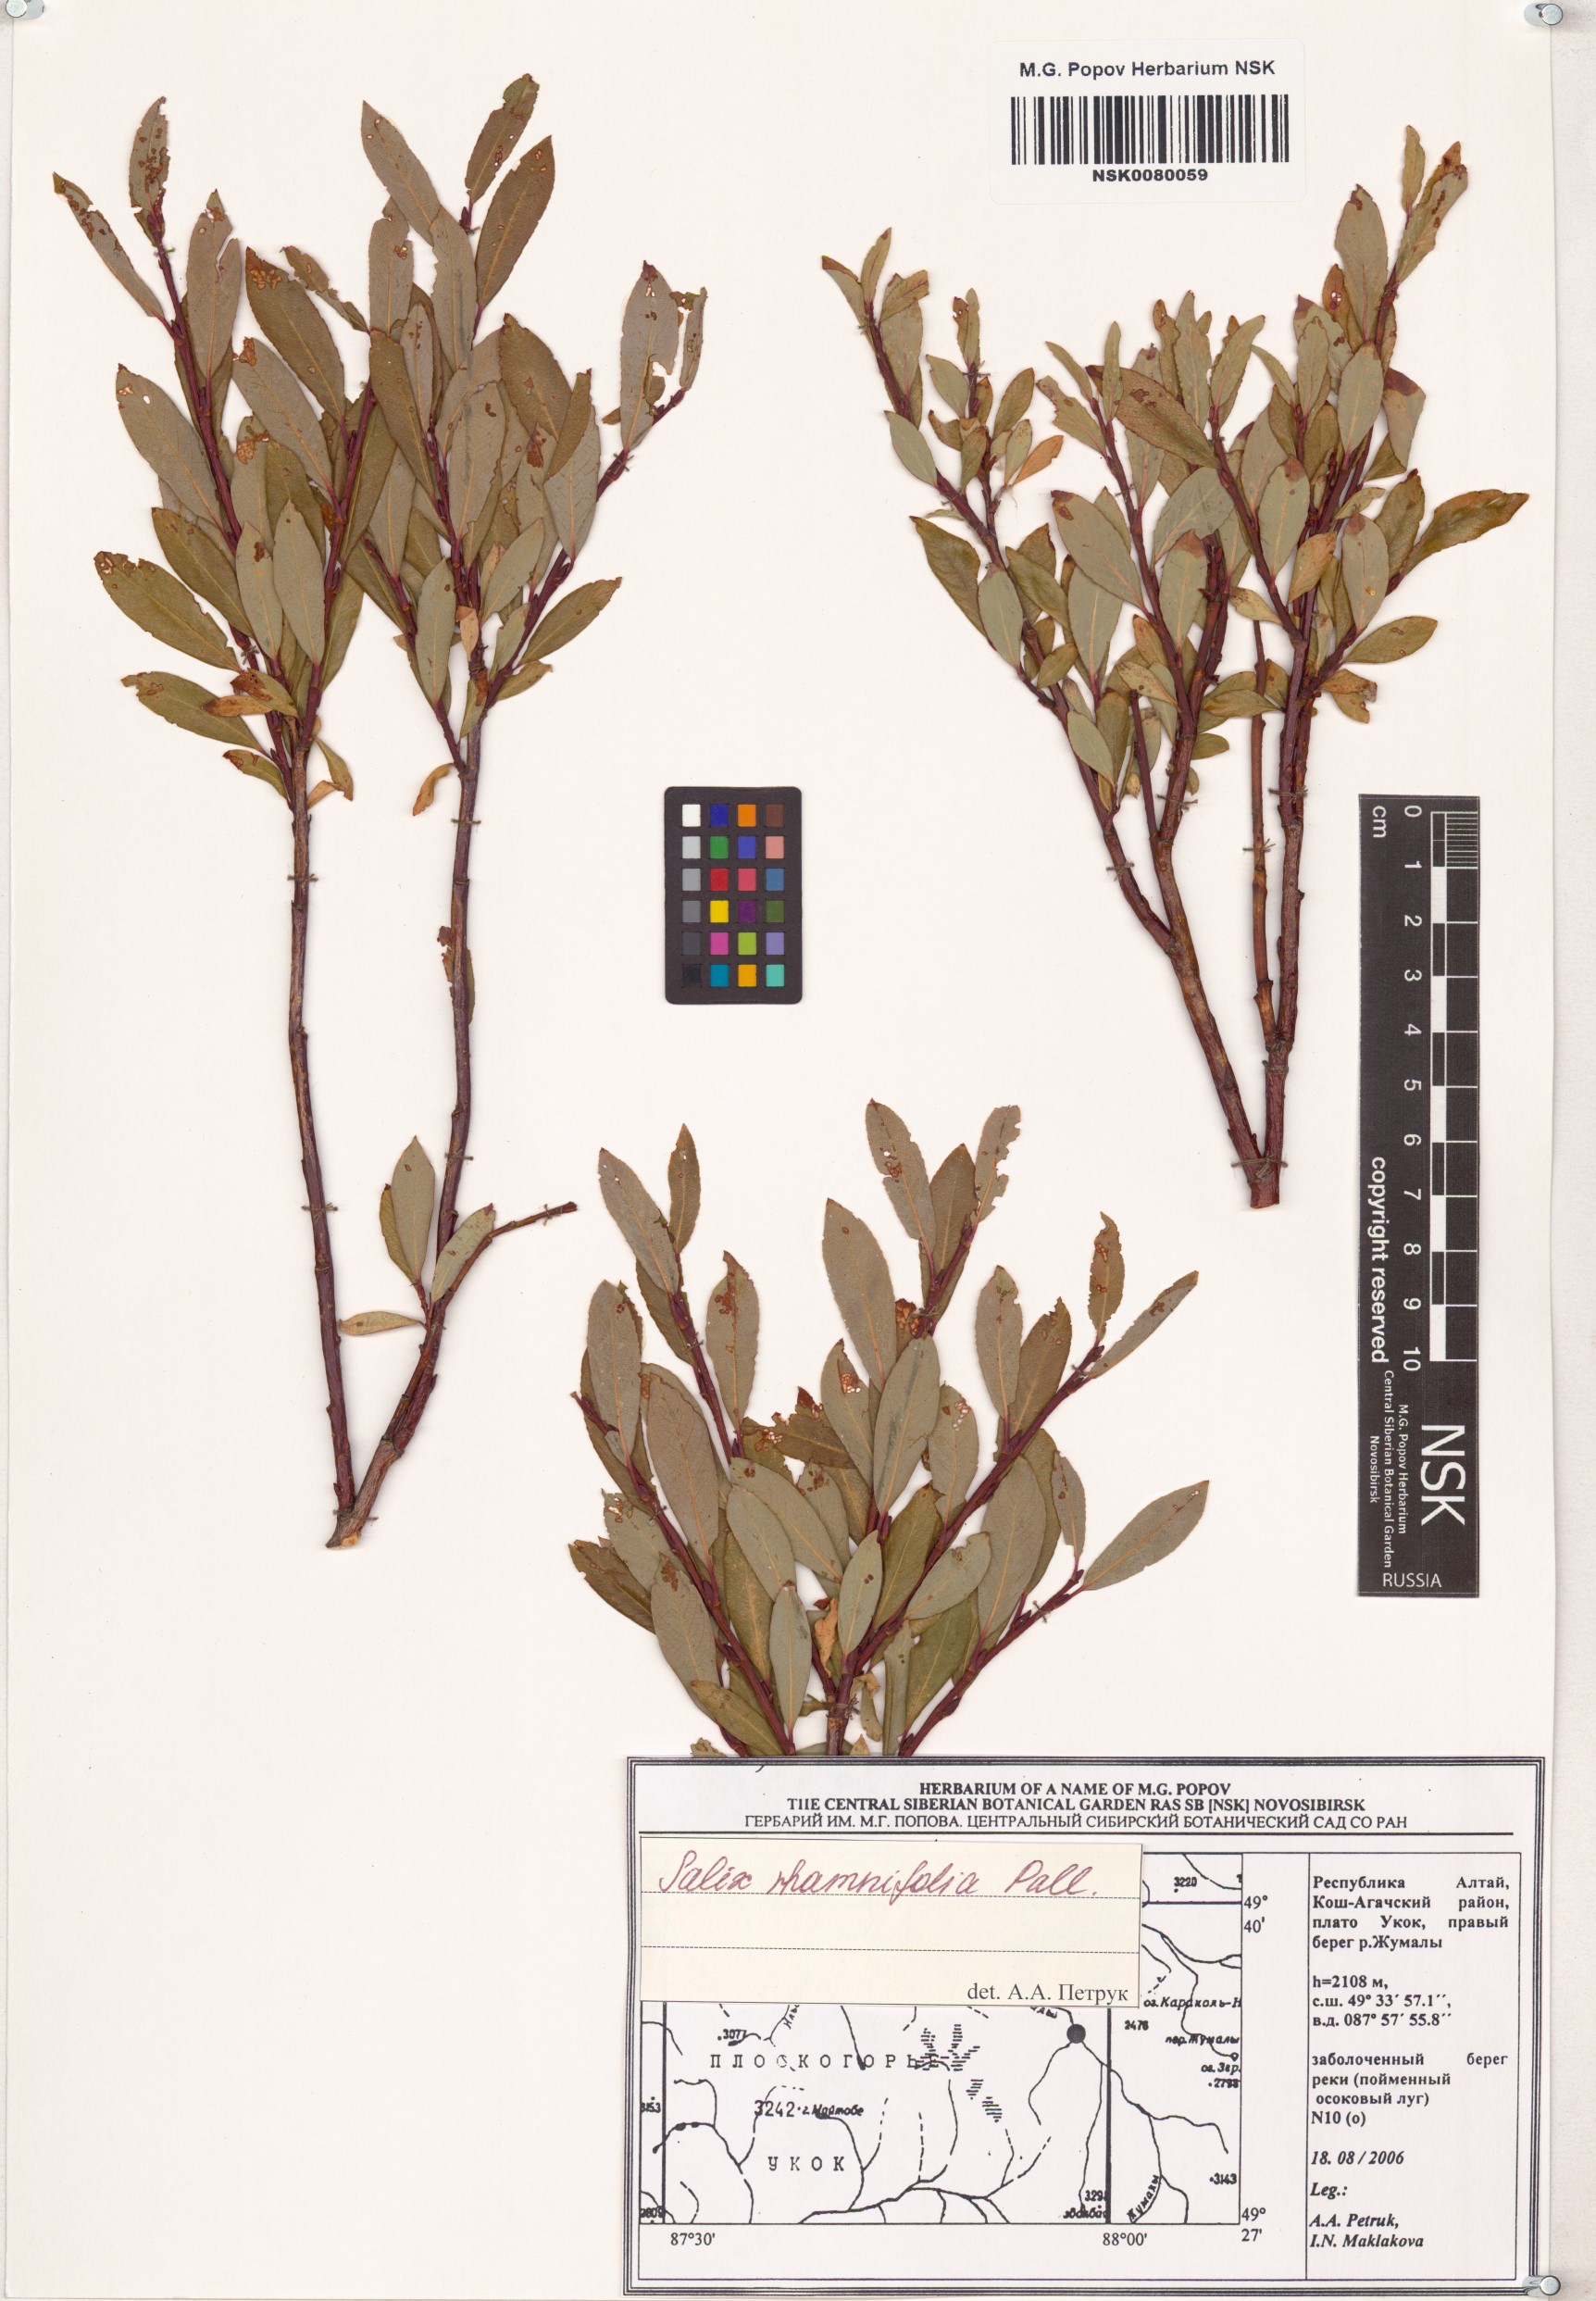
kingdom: Plantae
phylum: Tracheophyta
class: Magnoliopsida
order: Malpighiales
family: Salicaceae
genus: Salix
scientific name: Salix rhamnifolia
